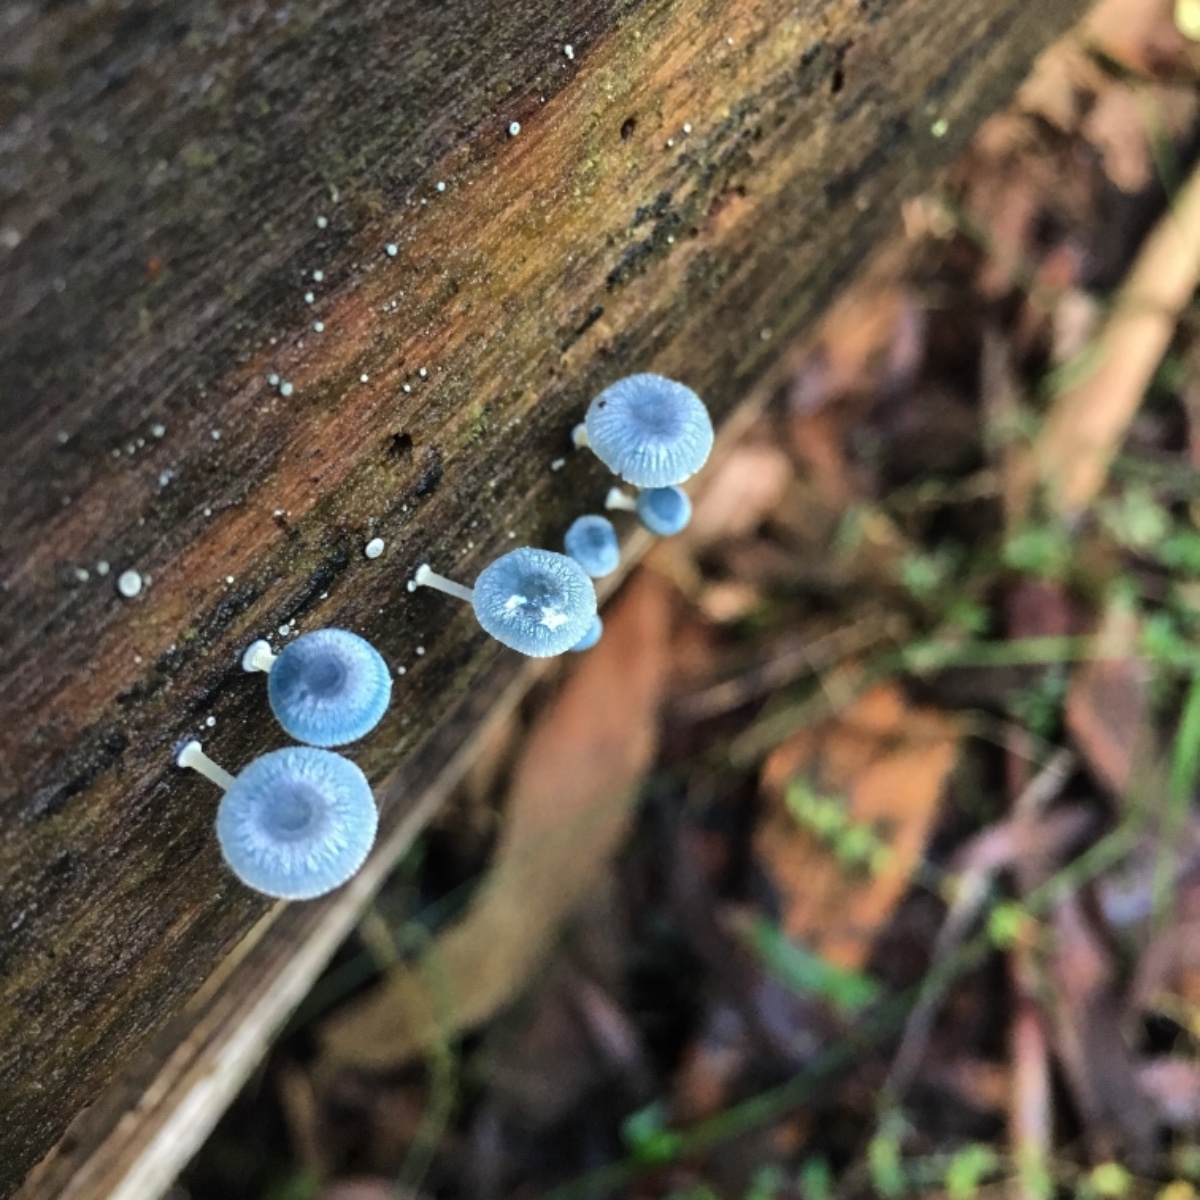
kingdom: Fungi
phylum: Basidiomycota
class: Agaricomycetes
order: Agaricales
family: Mycenaceae
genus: Mycena
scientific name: Mycena interrupta
